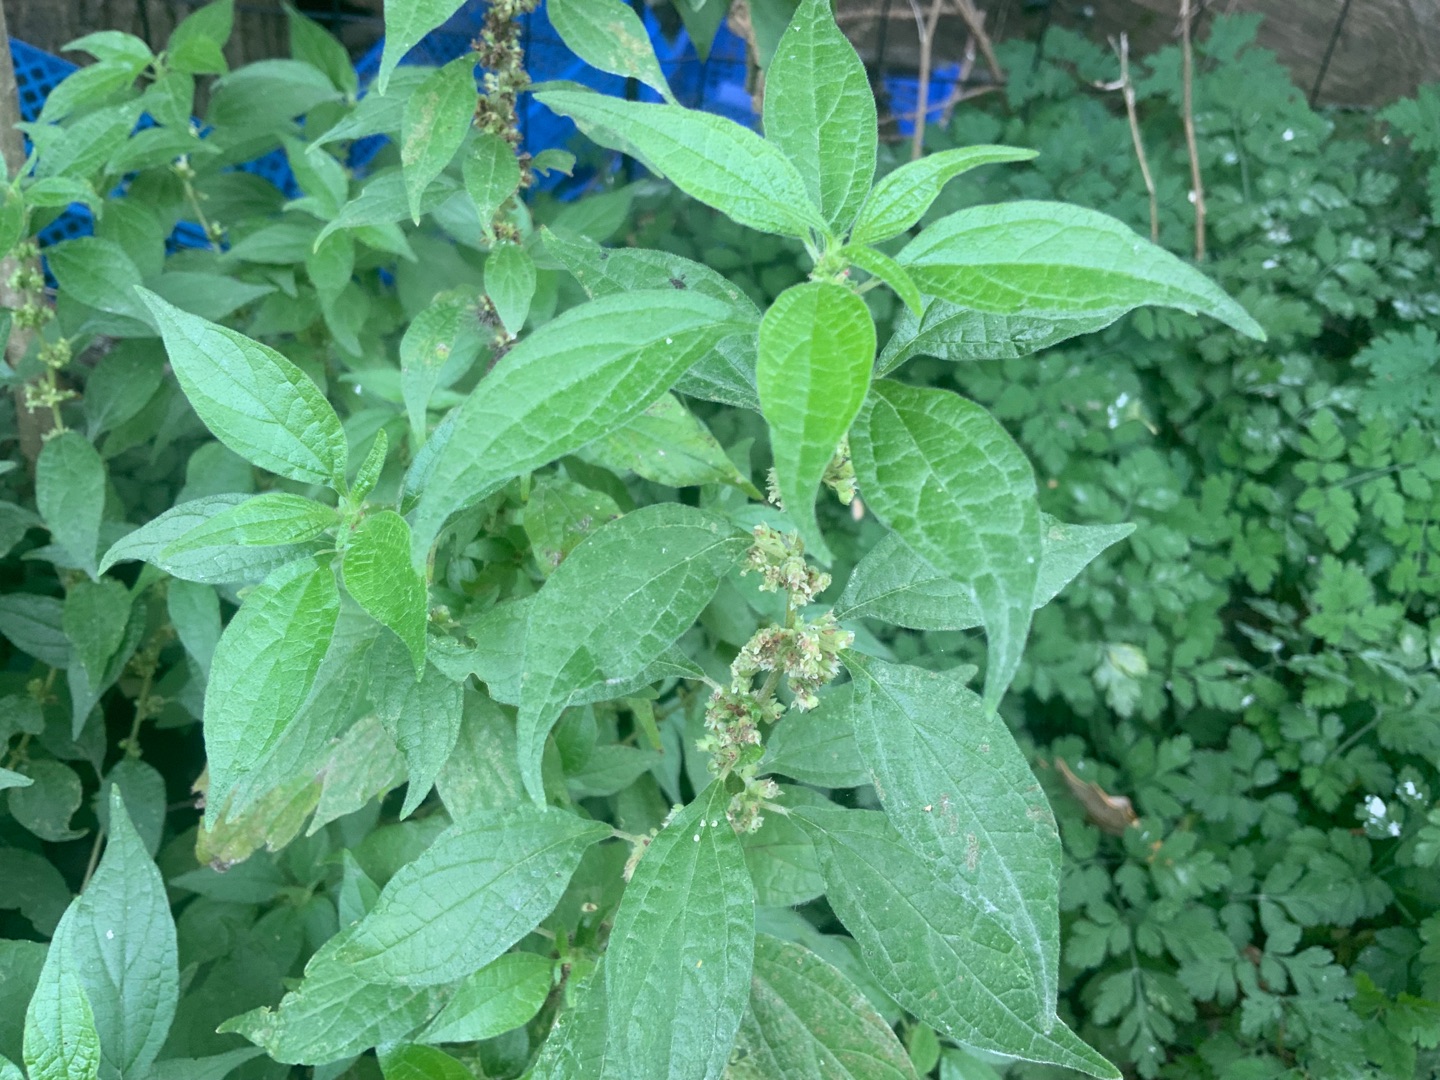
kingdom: Plantae
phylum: Tracheophyta
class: Magnoliopsida
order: Rosales
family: Urticaceae
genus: Parietaria
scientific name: Parietaria officinalis
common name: Almindelig springknap
